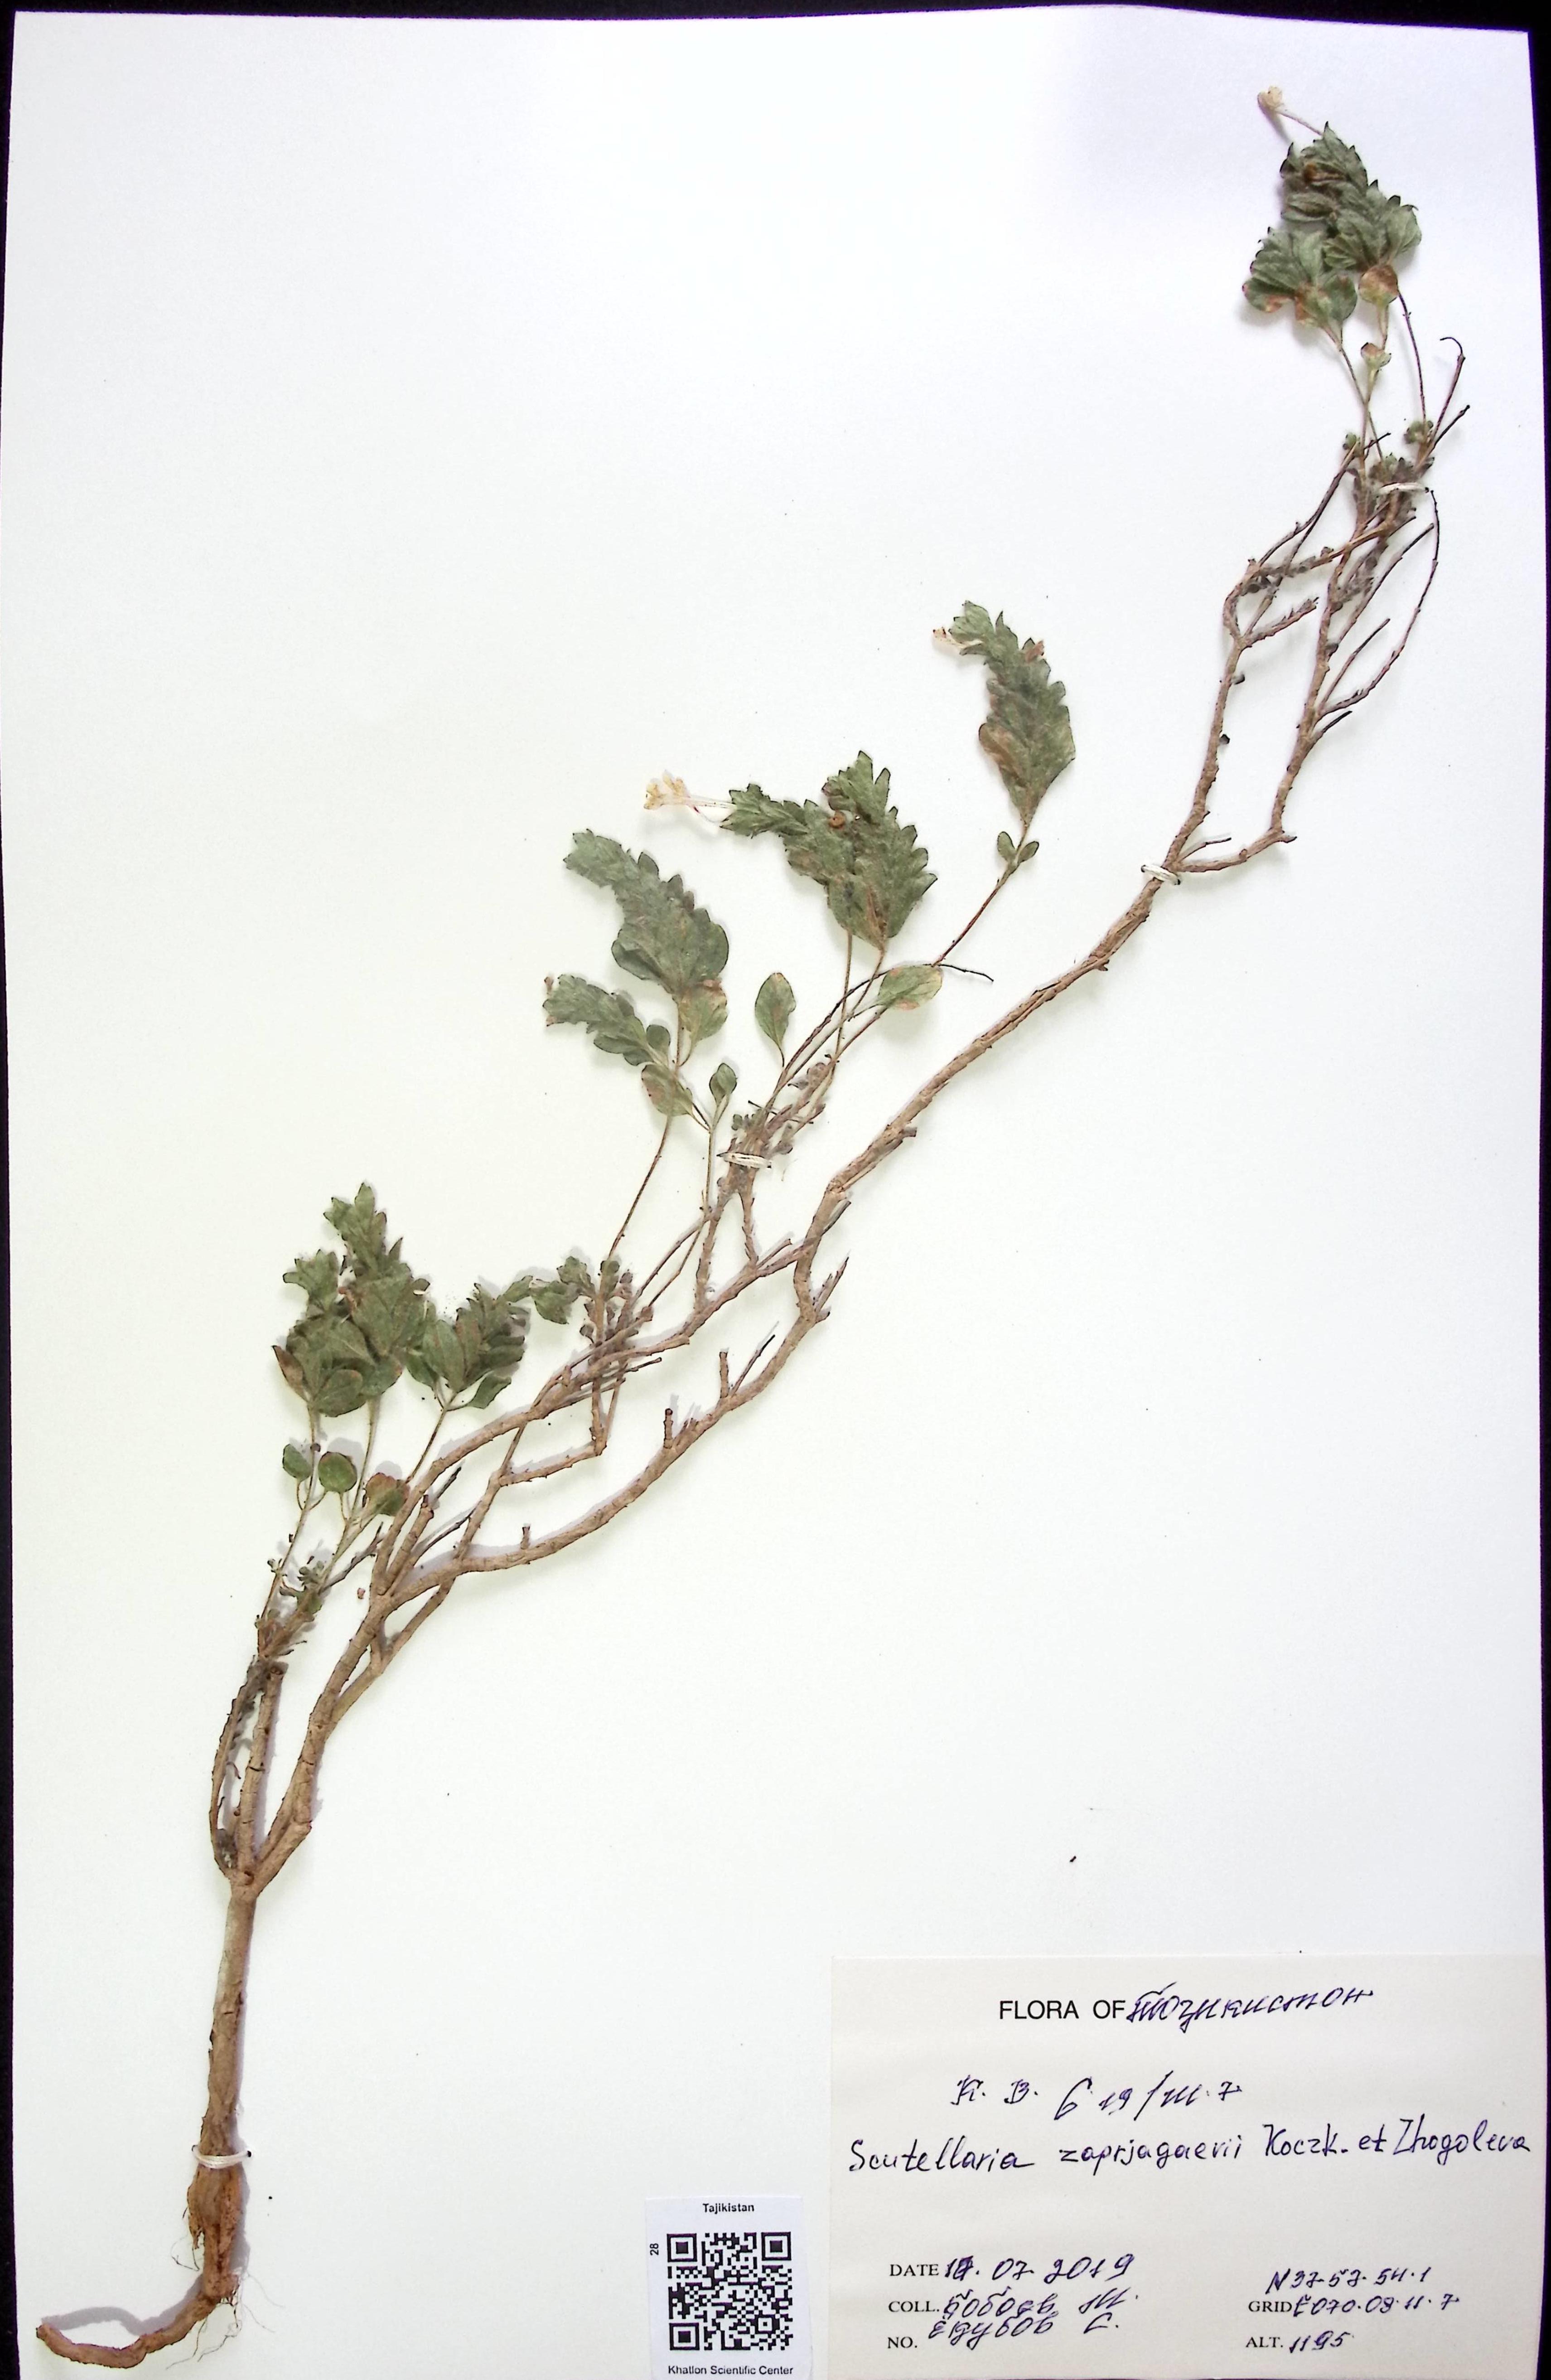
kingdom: Plantae
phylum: Tracheophyta
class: Magnoliopsida
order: Lamiales
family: Lamiaceae
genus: Scutellaria
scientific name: Scutellaria zaprjagaevii
